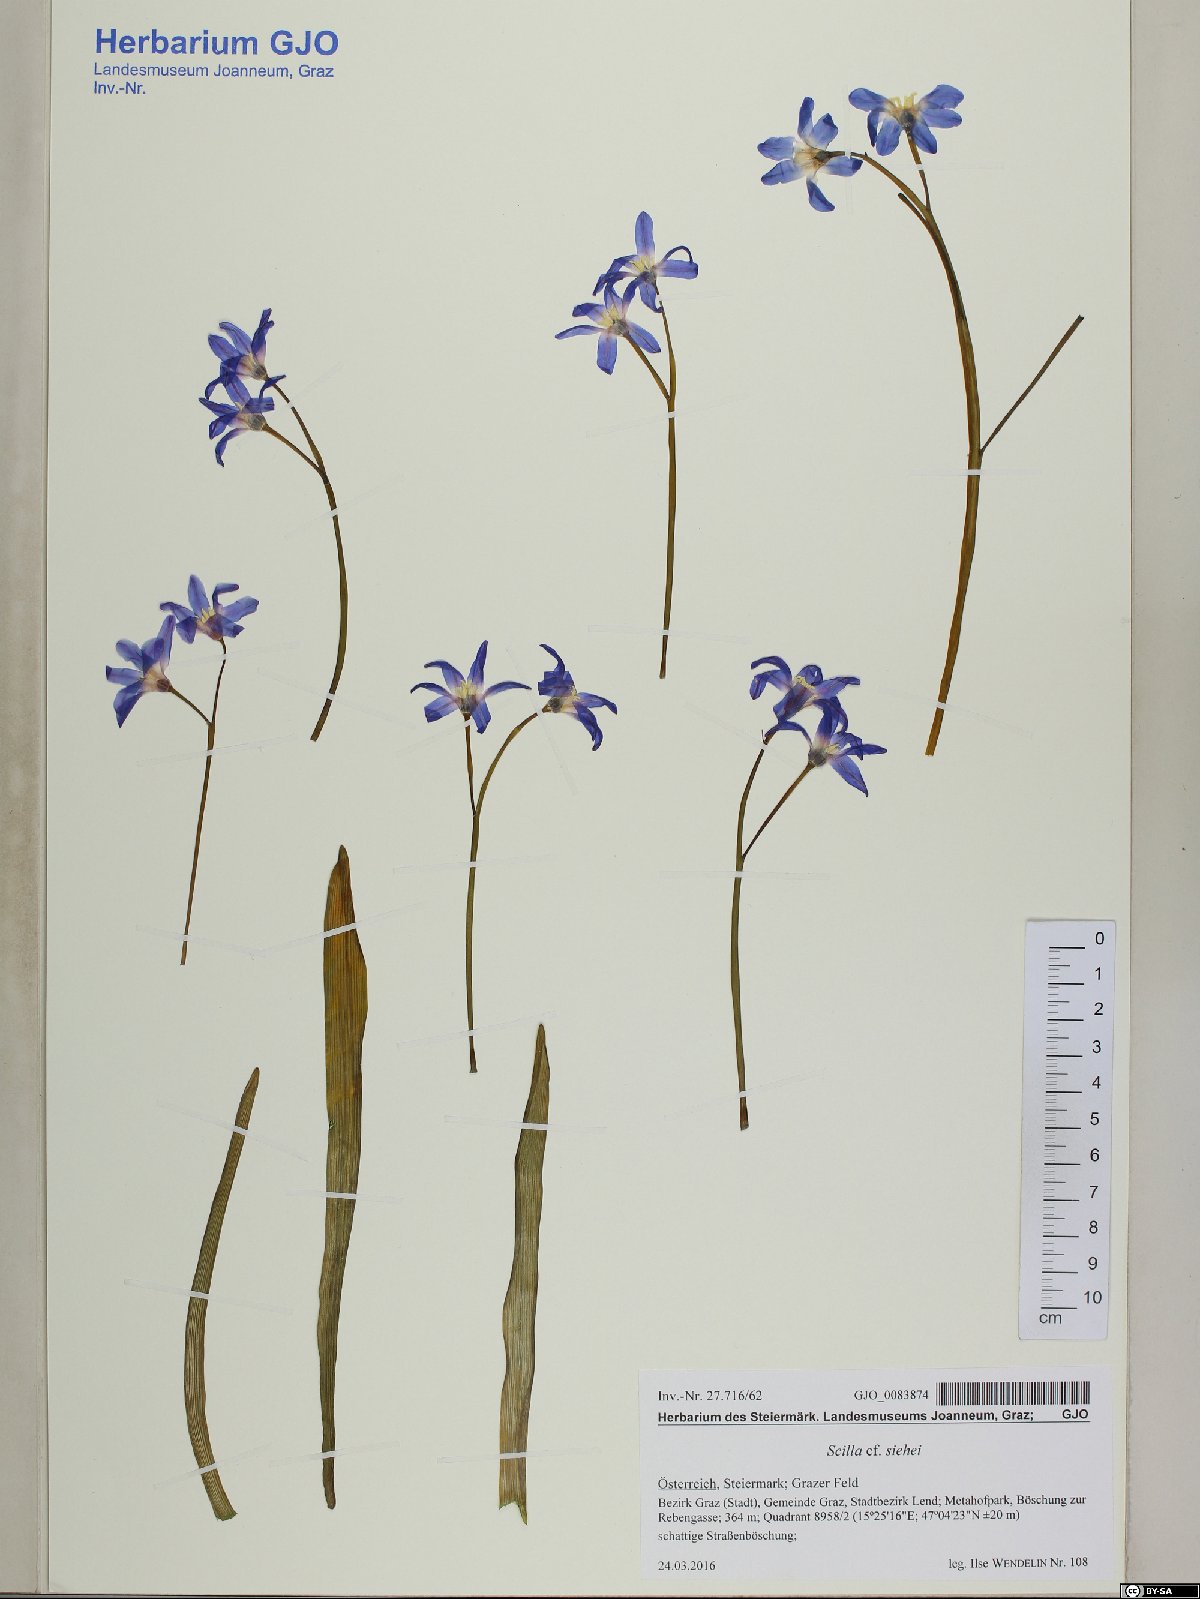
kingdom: Plantae
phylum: Tracheophyta
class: Liliopsida
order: Asparagales
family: Asparagaceae
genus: Scilla
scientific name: Scilla forbesii
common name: Glory-of-the-snow
